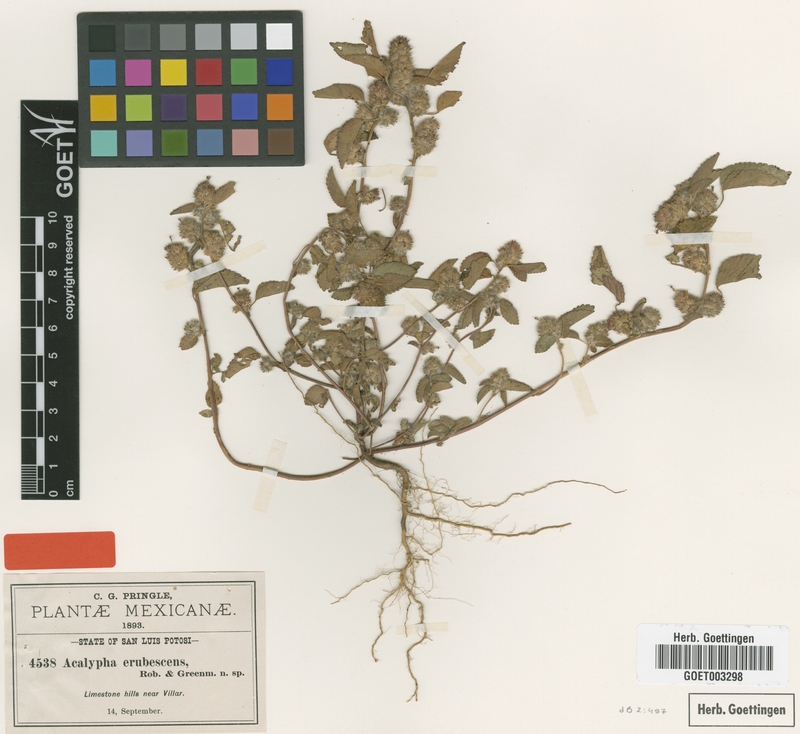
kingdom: Plantae
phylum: Tracheophyta
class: Magnoliopsida
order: Malpighiales
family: Euphorbiaceae
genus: Acalypha
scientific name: Acalypha erubescens
